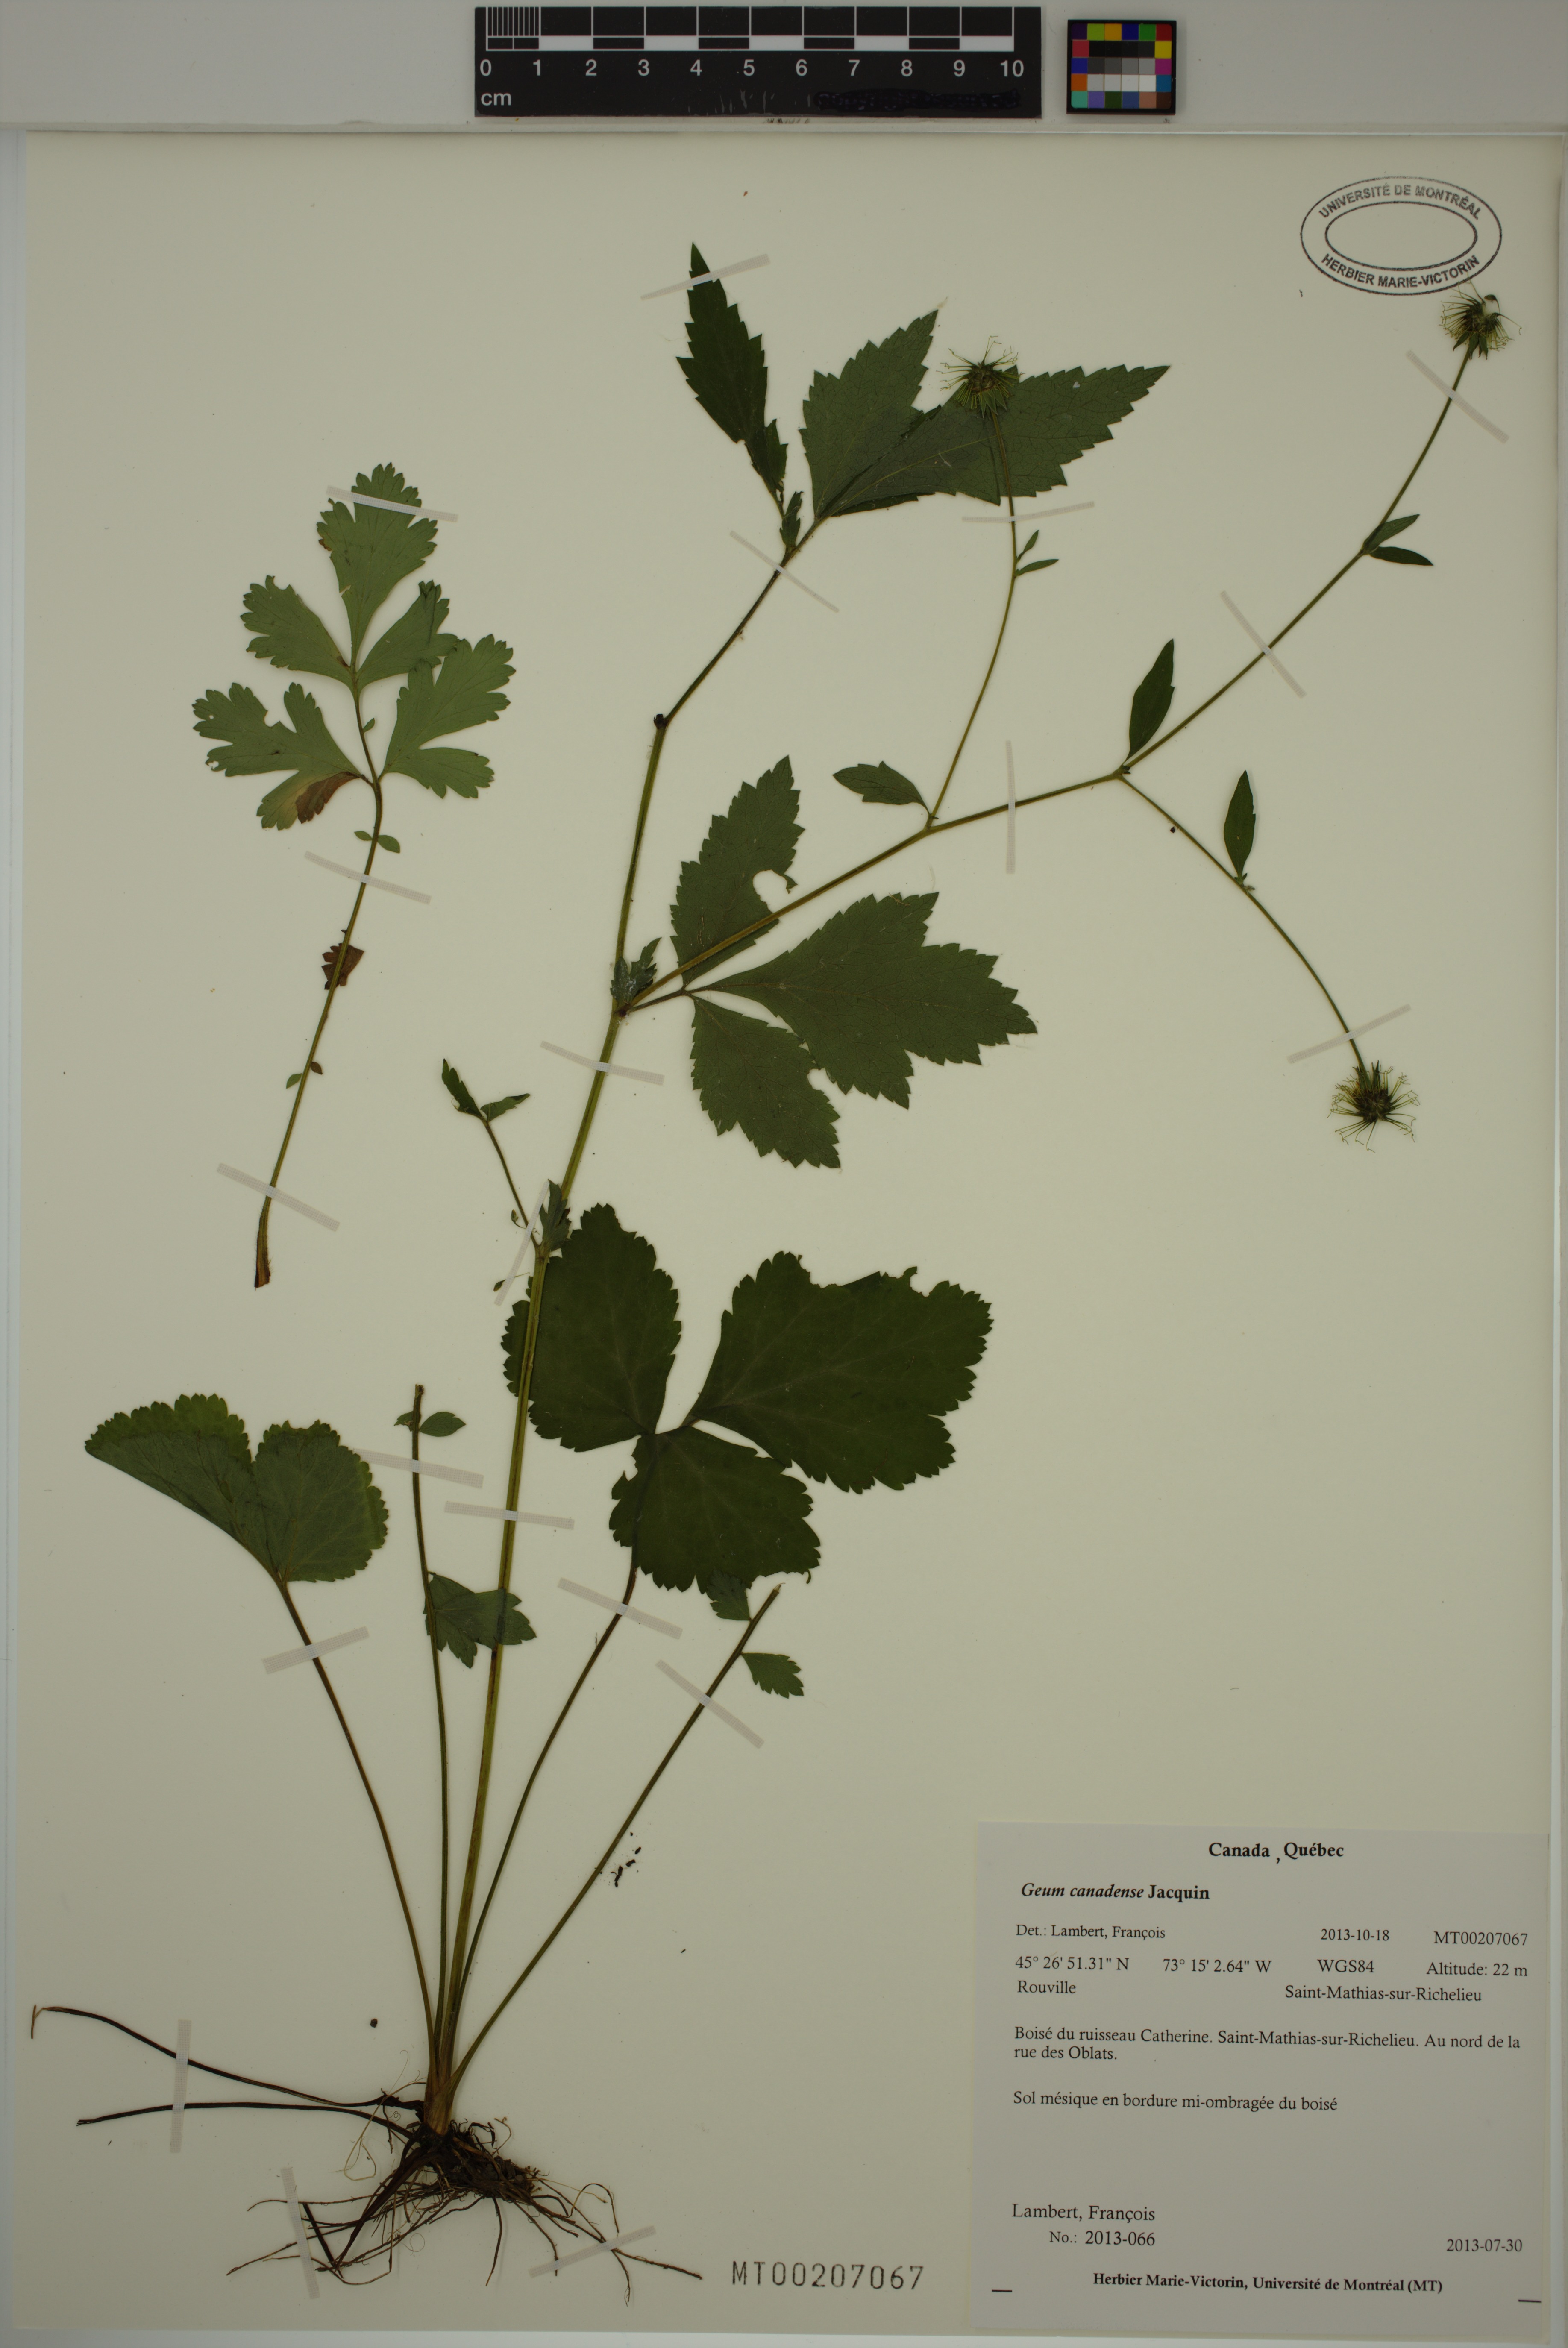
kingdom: Plantae
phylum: Tracheophyta
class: Magnoliopsida
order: Rosales
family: Rosaceae
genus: Geum
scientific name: Geum canadense
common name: White avens
